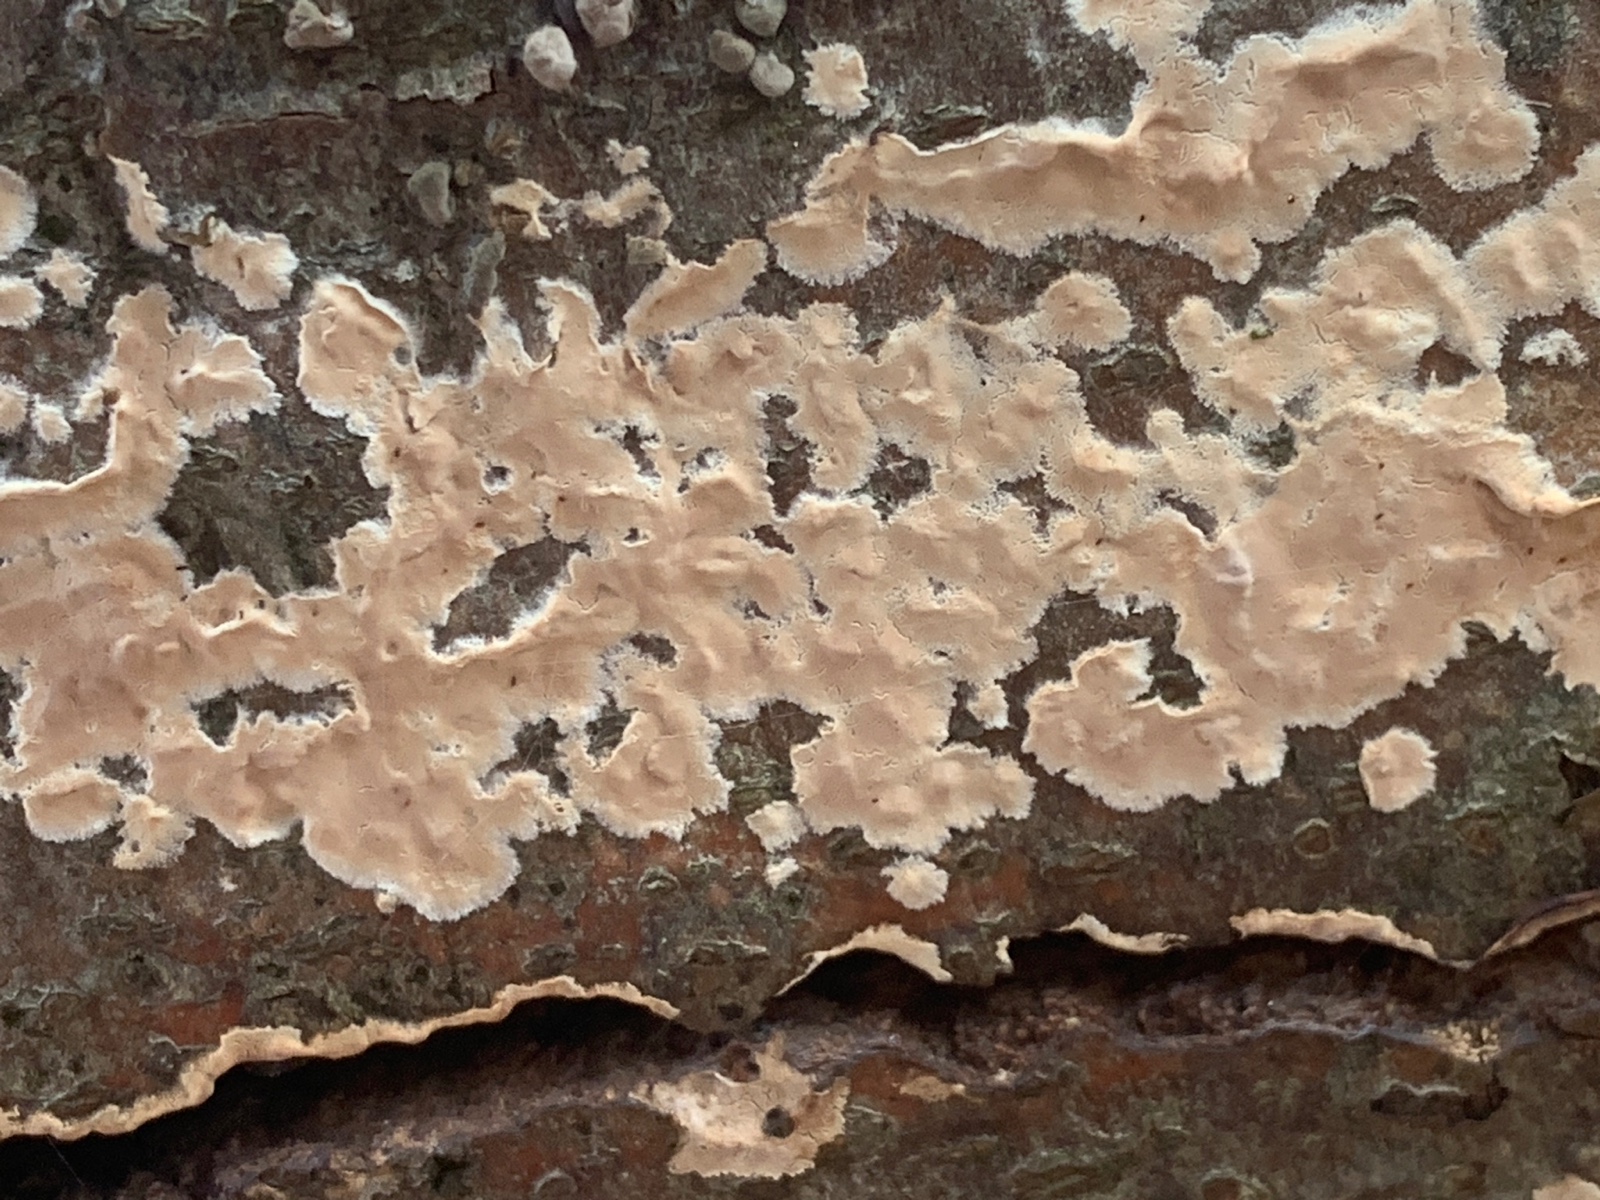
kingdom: Fungi
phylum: Basidiomycota
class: Agaricomycetes
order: Agaricales
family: Physalacriaceae
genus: Cylindrobasidium
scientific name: Cylindrobasidium evolvens
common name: sprækkehinde
